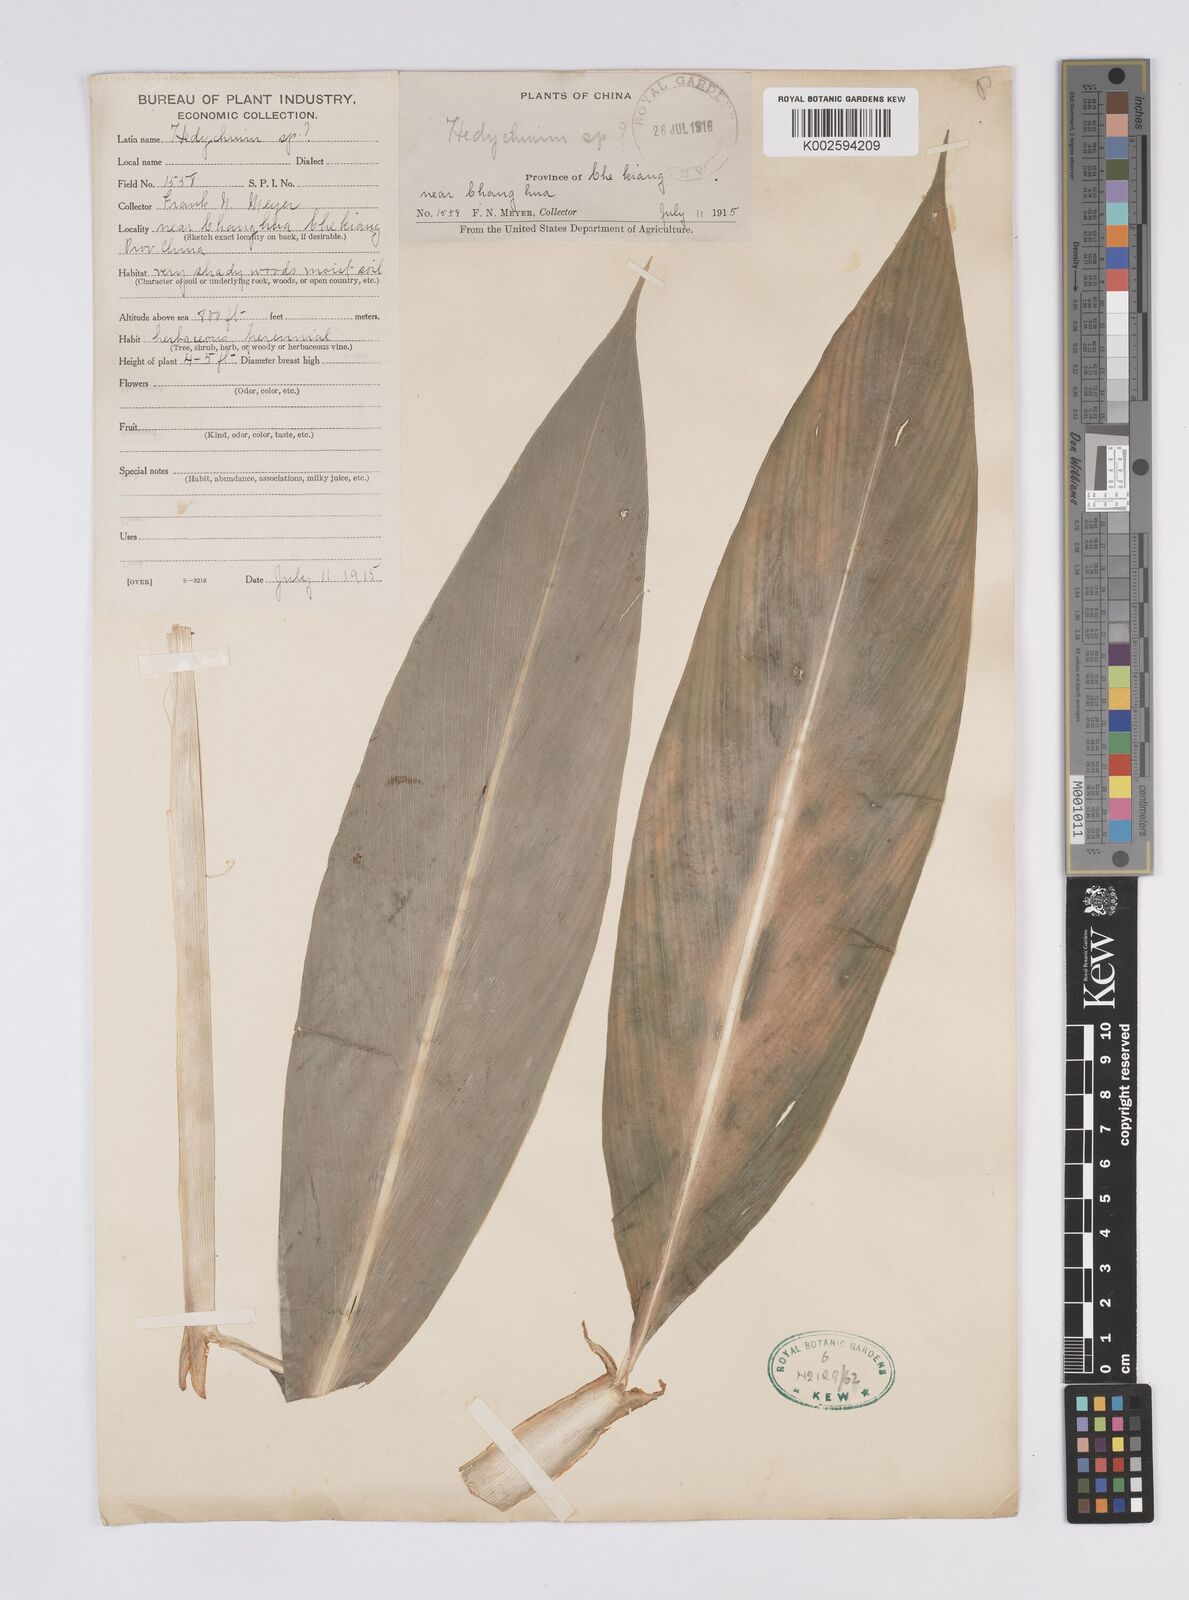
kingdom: Plantae
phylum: Tracheophyta
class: Liliopsida
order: Zingiberales
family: Zingiberaceae
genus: Hedychium
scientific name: Hedychium
